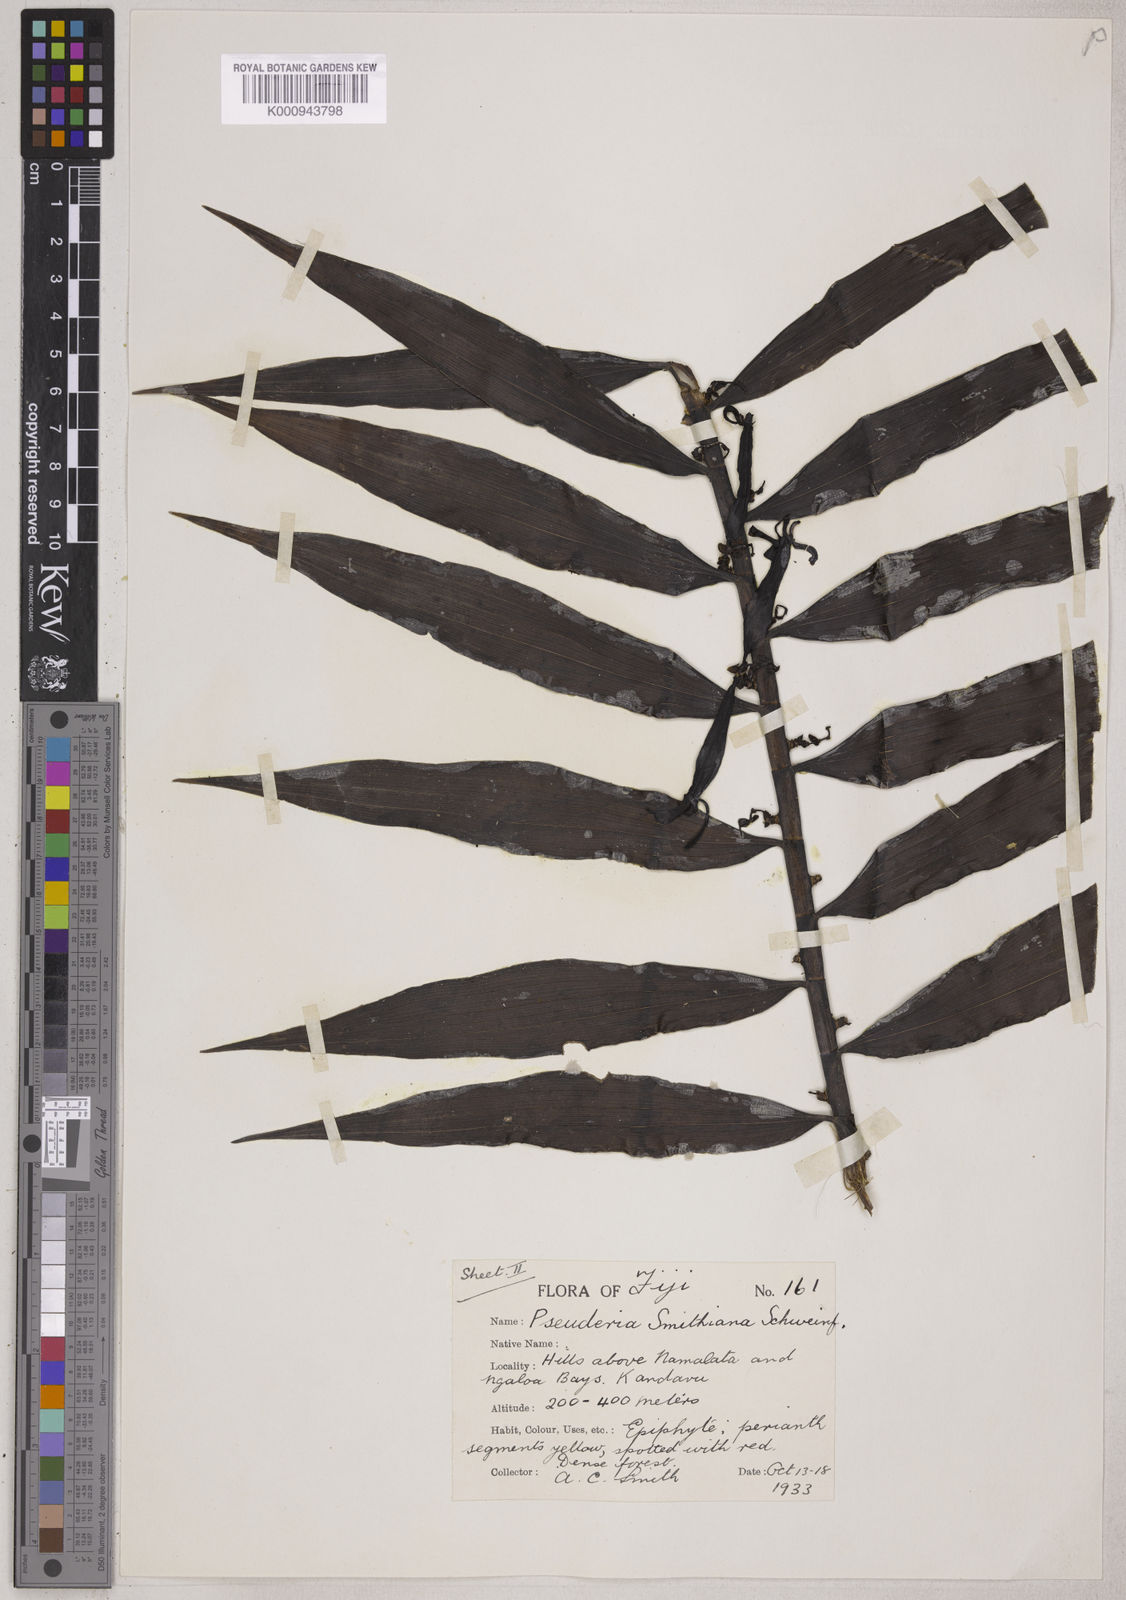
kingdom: Plantae
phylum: Tracheophyta
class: Liliopsida
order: Asparagales
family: Orchidaceae
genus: Pseuderia
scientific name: Pseuderia smithiana
